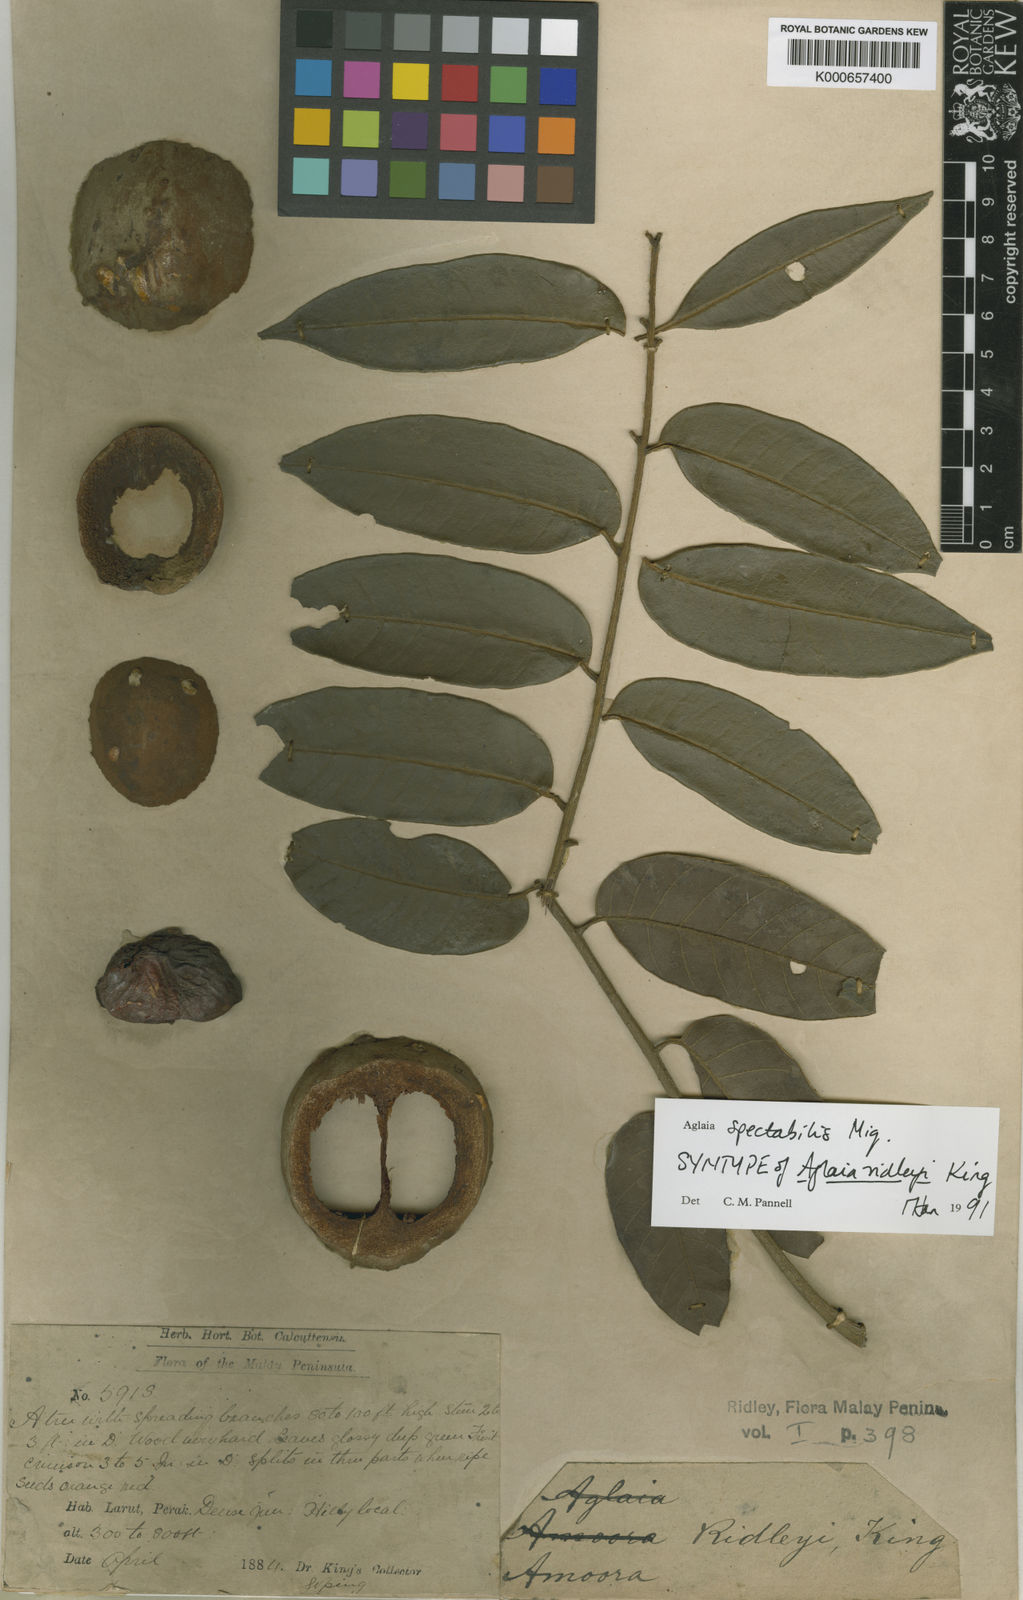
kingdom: Plantae
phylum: Tracheophyta
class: Magnoliopsida
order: Sapindales
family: Meliaceae
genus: Aglaia
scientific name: Aglaia spectabilis
